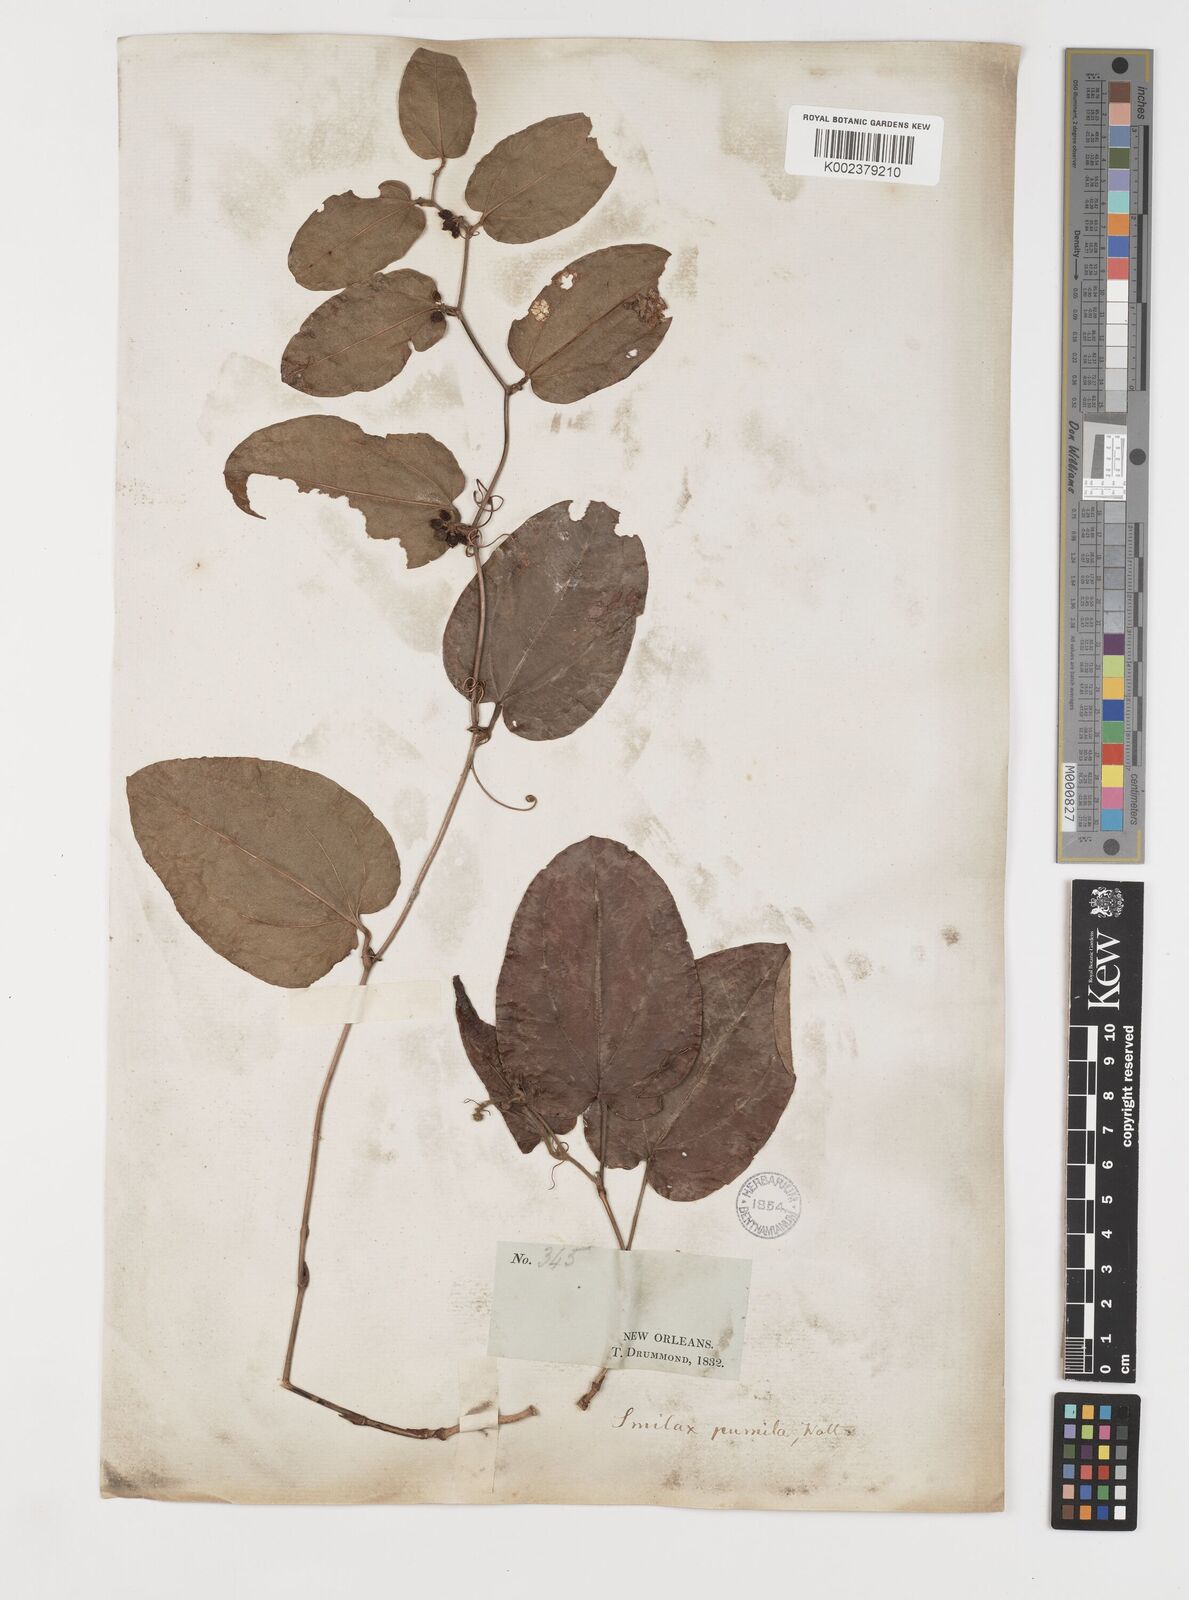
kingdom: Plantae
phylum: Tracheophyta
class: Liliopsida
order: Liliales
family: Smilacaceae
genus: Smilax
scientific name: Smilax pumila
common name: Sarsaparilla-vine
